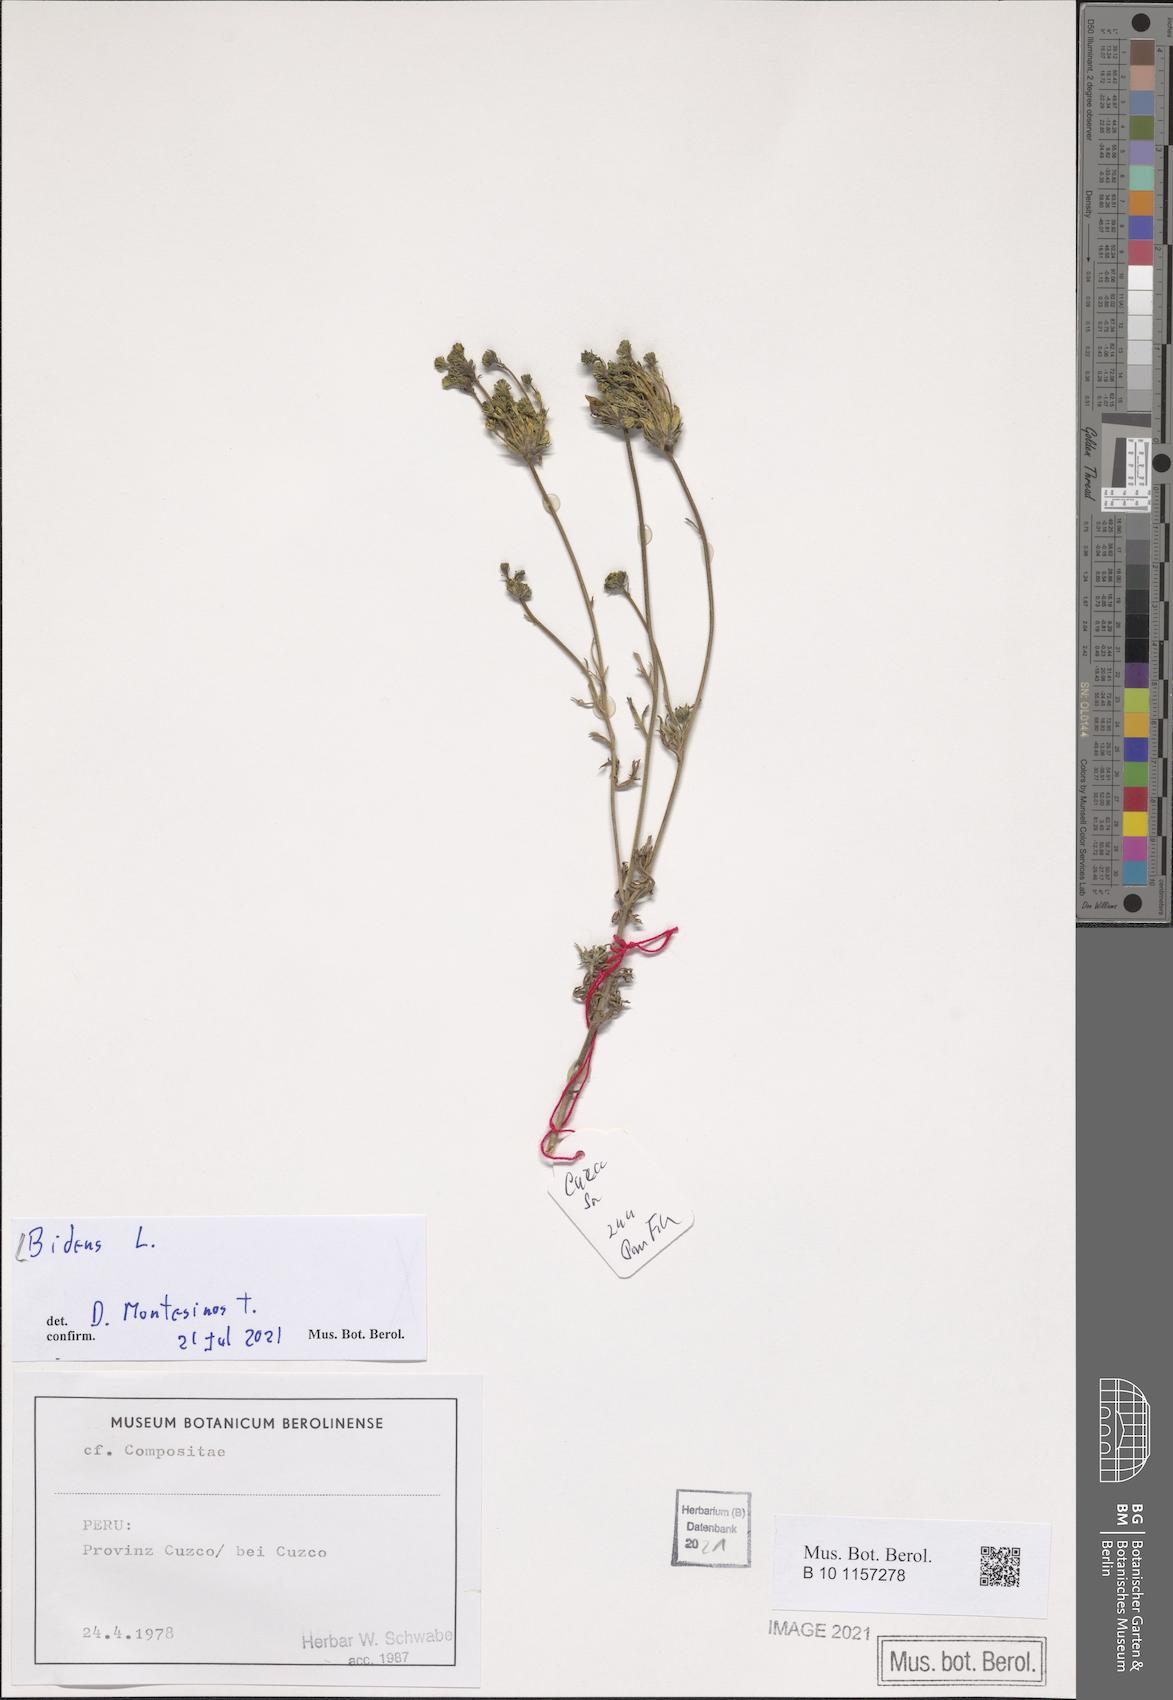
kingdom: Plantae
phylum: Tracheophyta
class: Magnoliopsida
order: Asterales
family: Asteraceae
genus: Bidens
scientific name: Bidens
